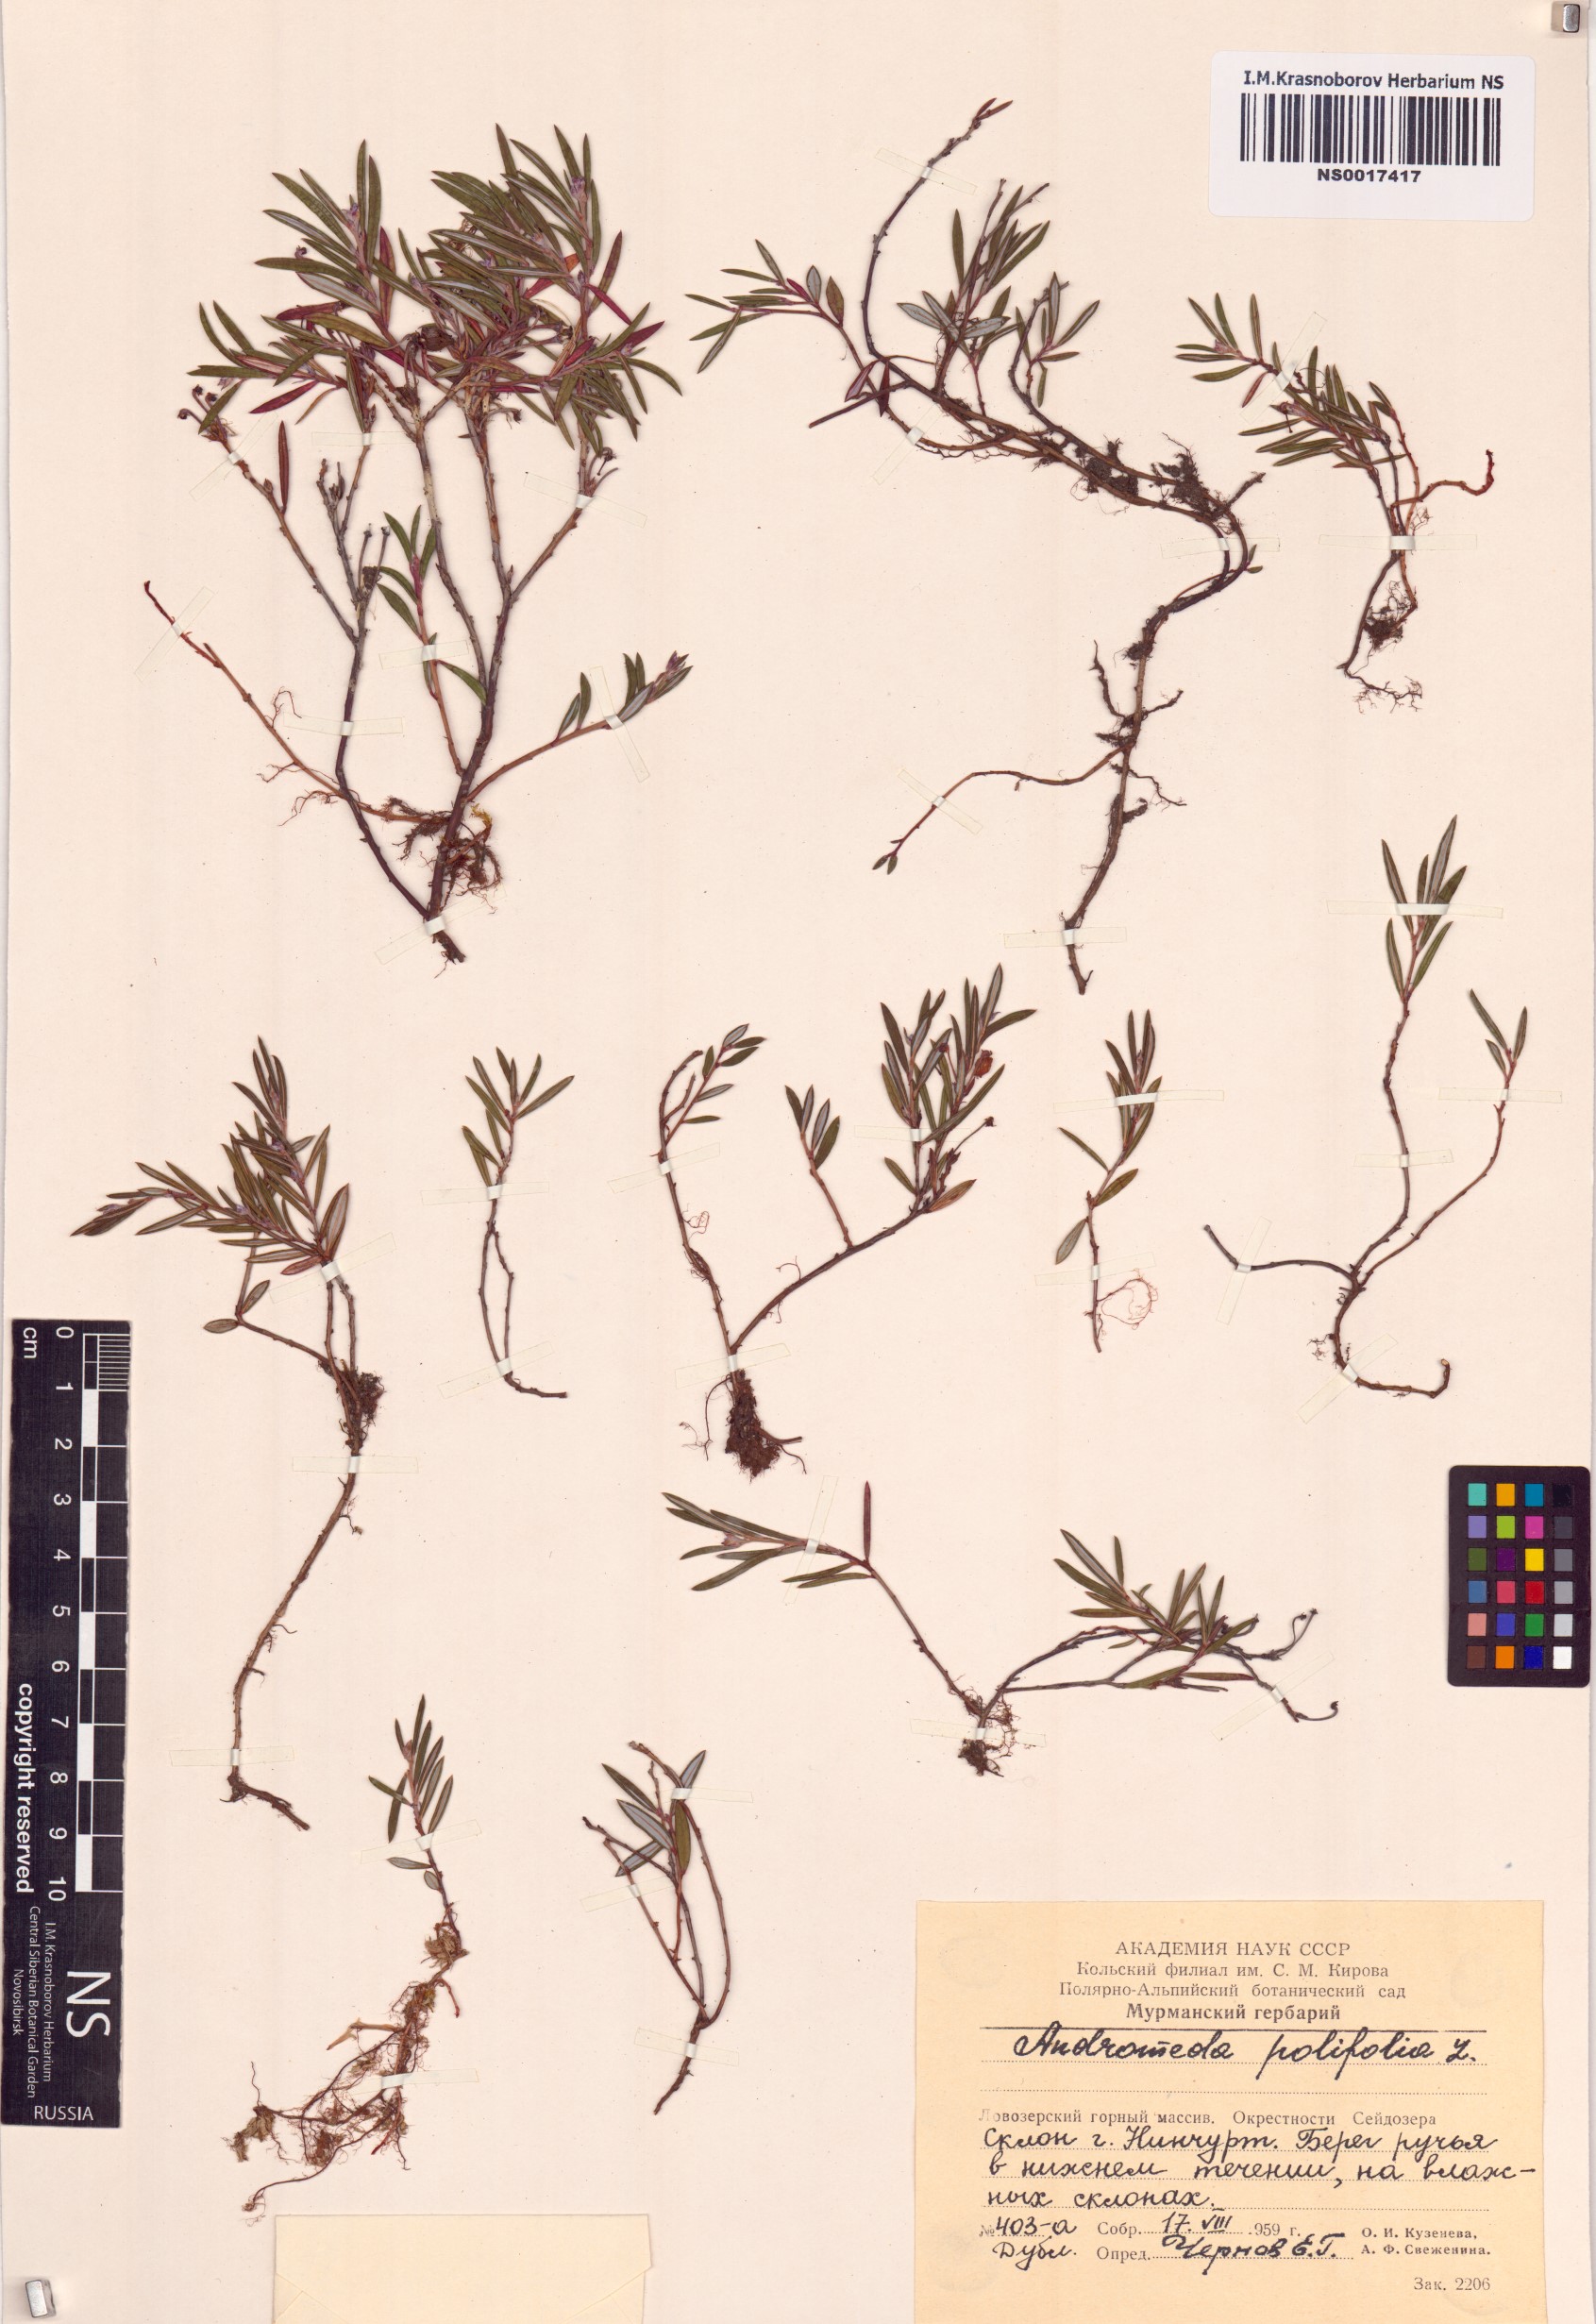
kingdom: Plantae
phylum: Tracheophyta
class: Magnoliopsida
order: Ericales
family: Ericaceae
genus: Andromeda
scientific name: Andromeda polifolia
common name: Bog-rosemary
